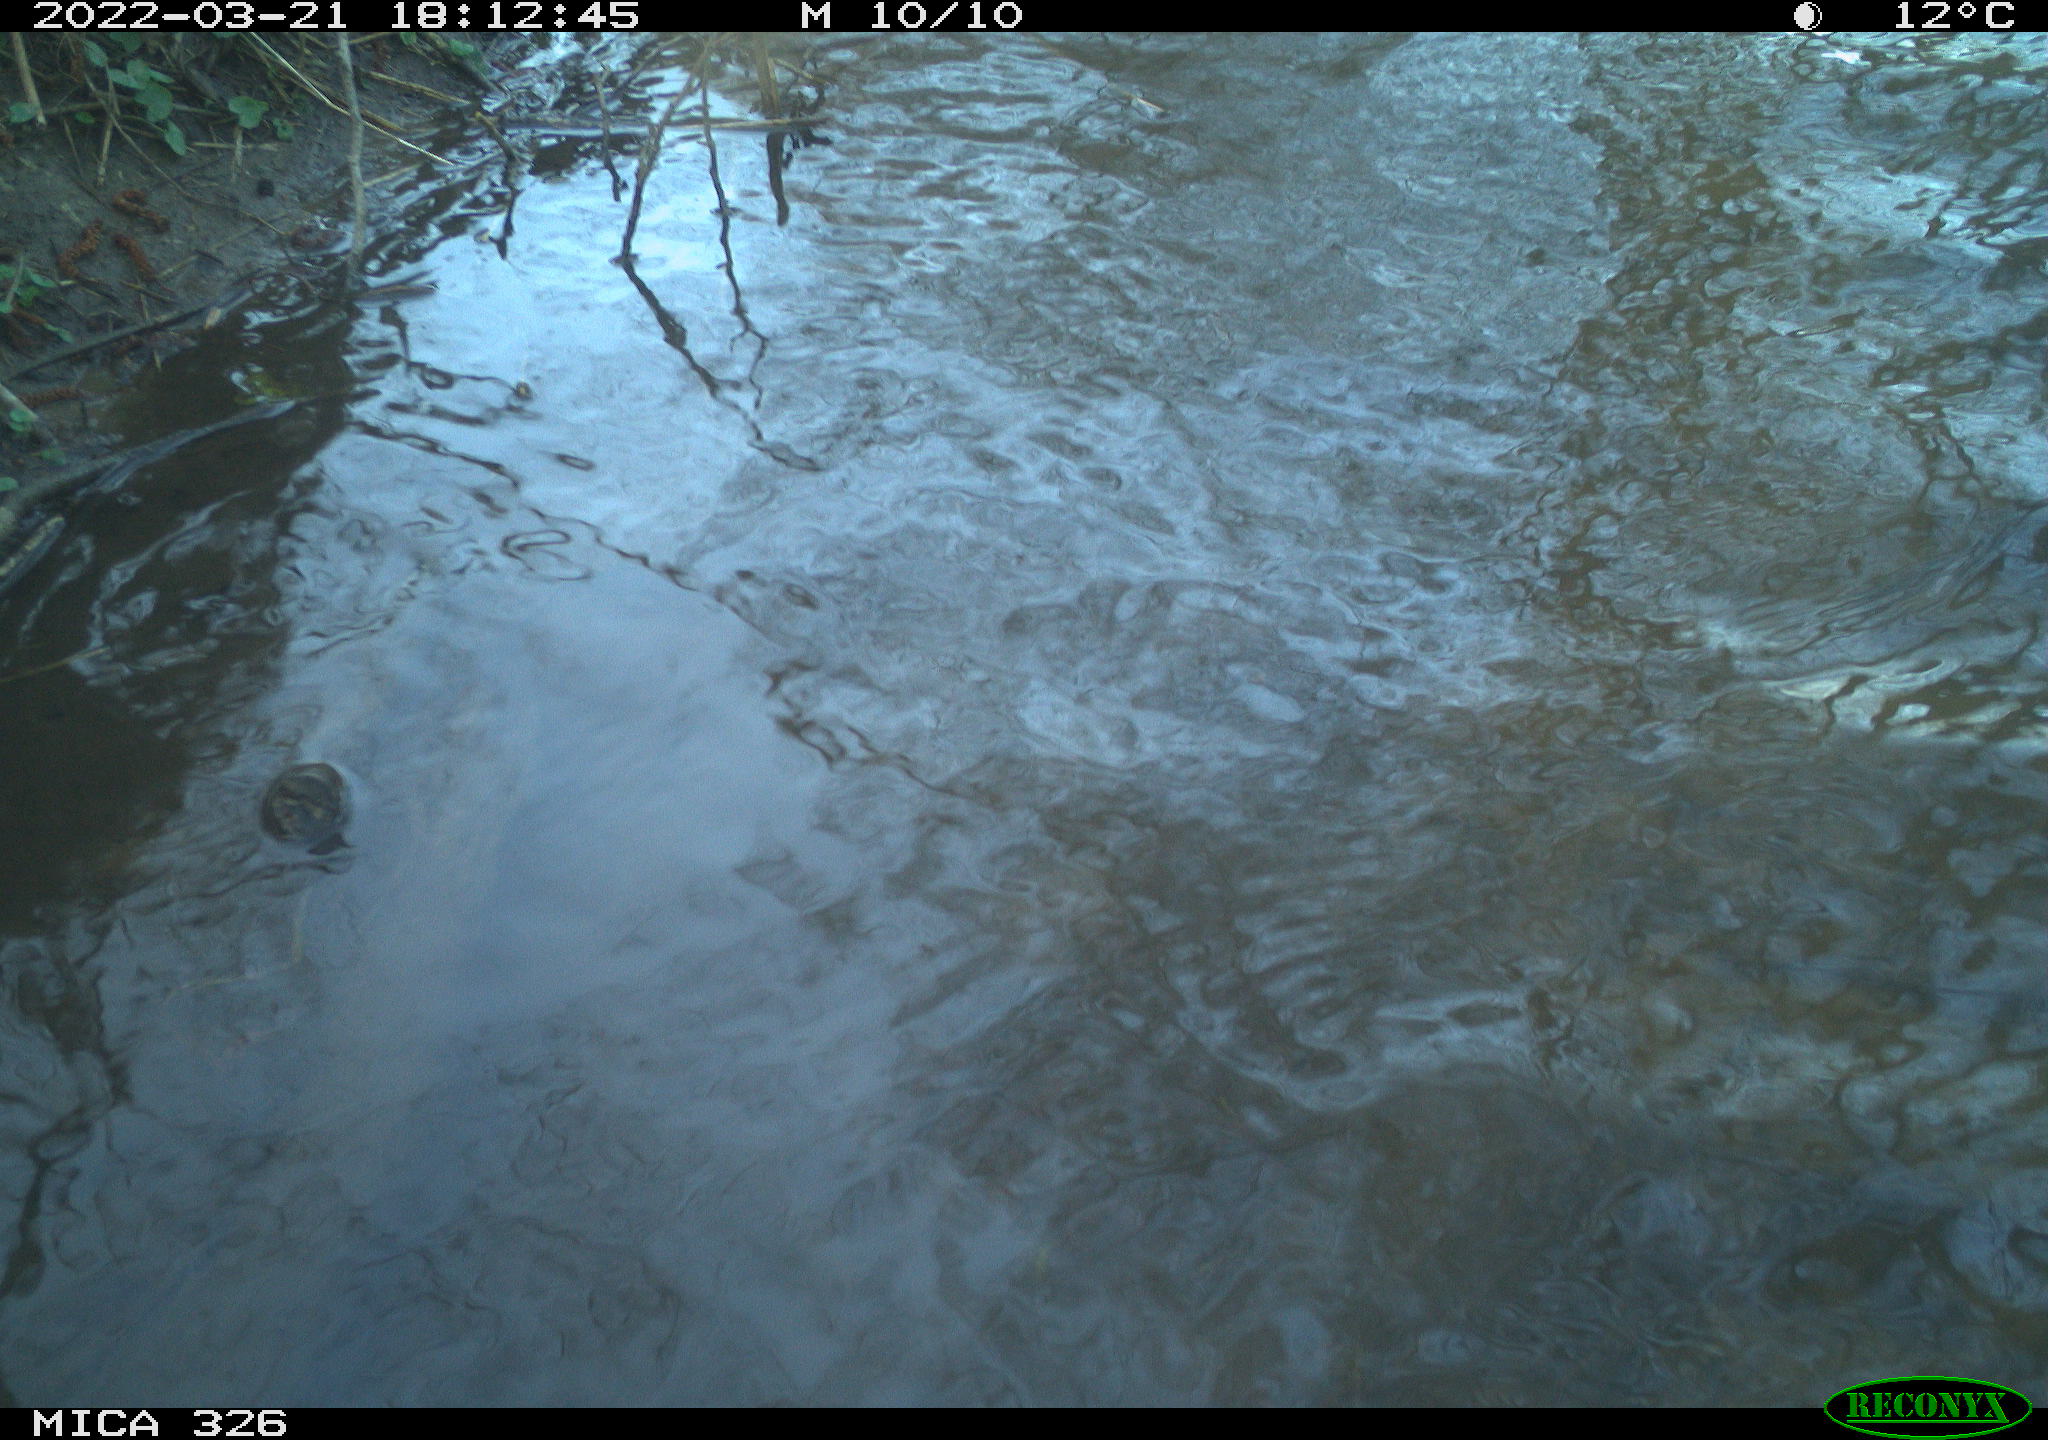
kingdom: Animalia
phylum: Chordata
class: Mammalia
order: Rodentia
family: Cricetidae
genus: Ondatra
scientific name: Ondatra zibethicus
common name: Muskrat
